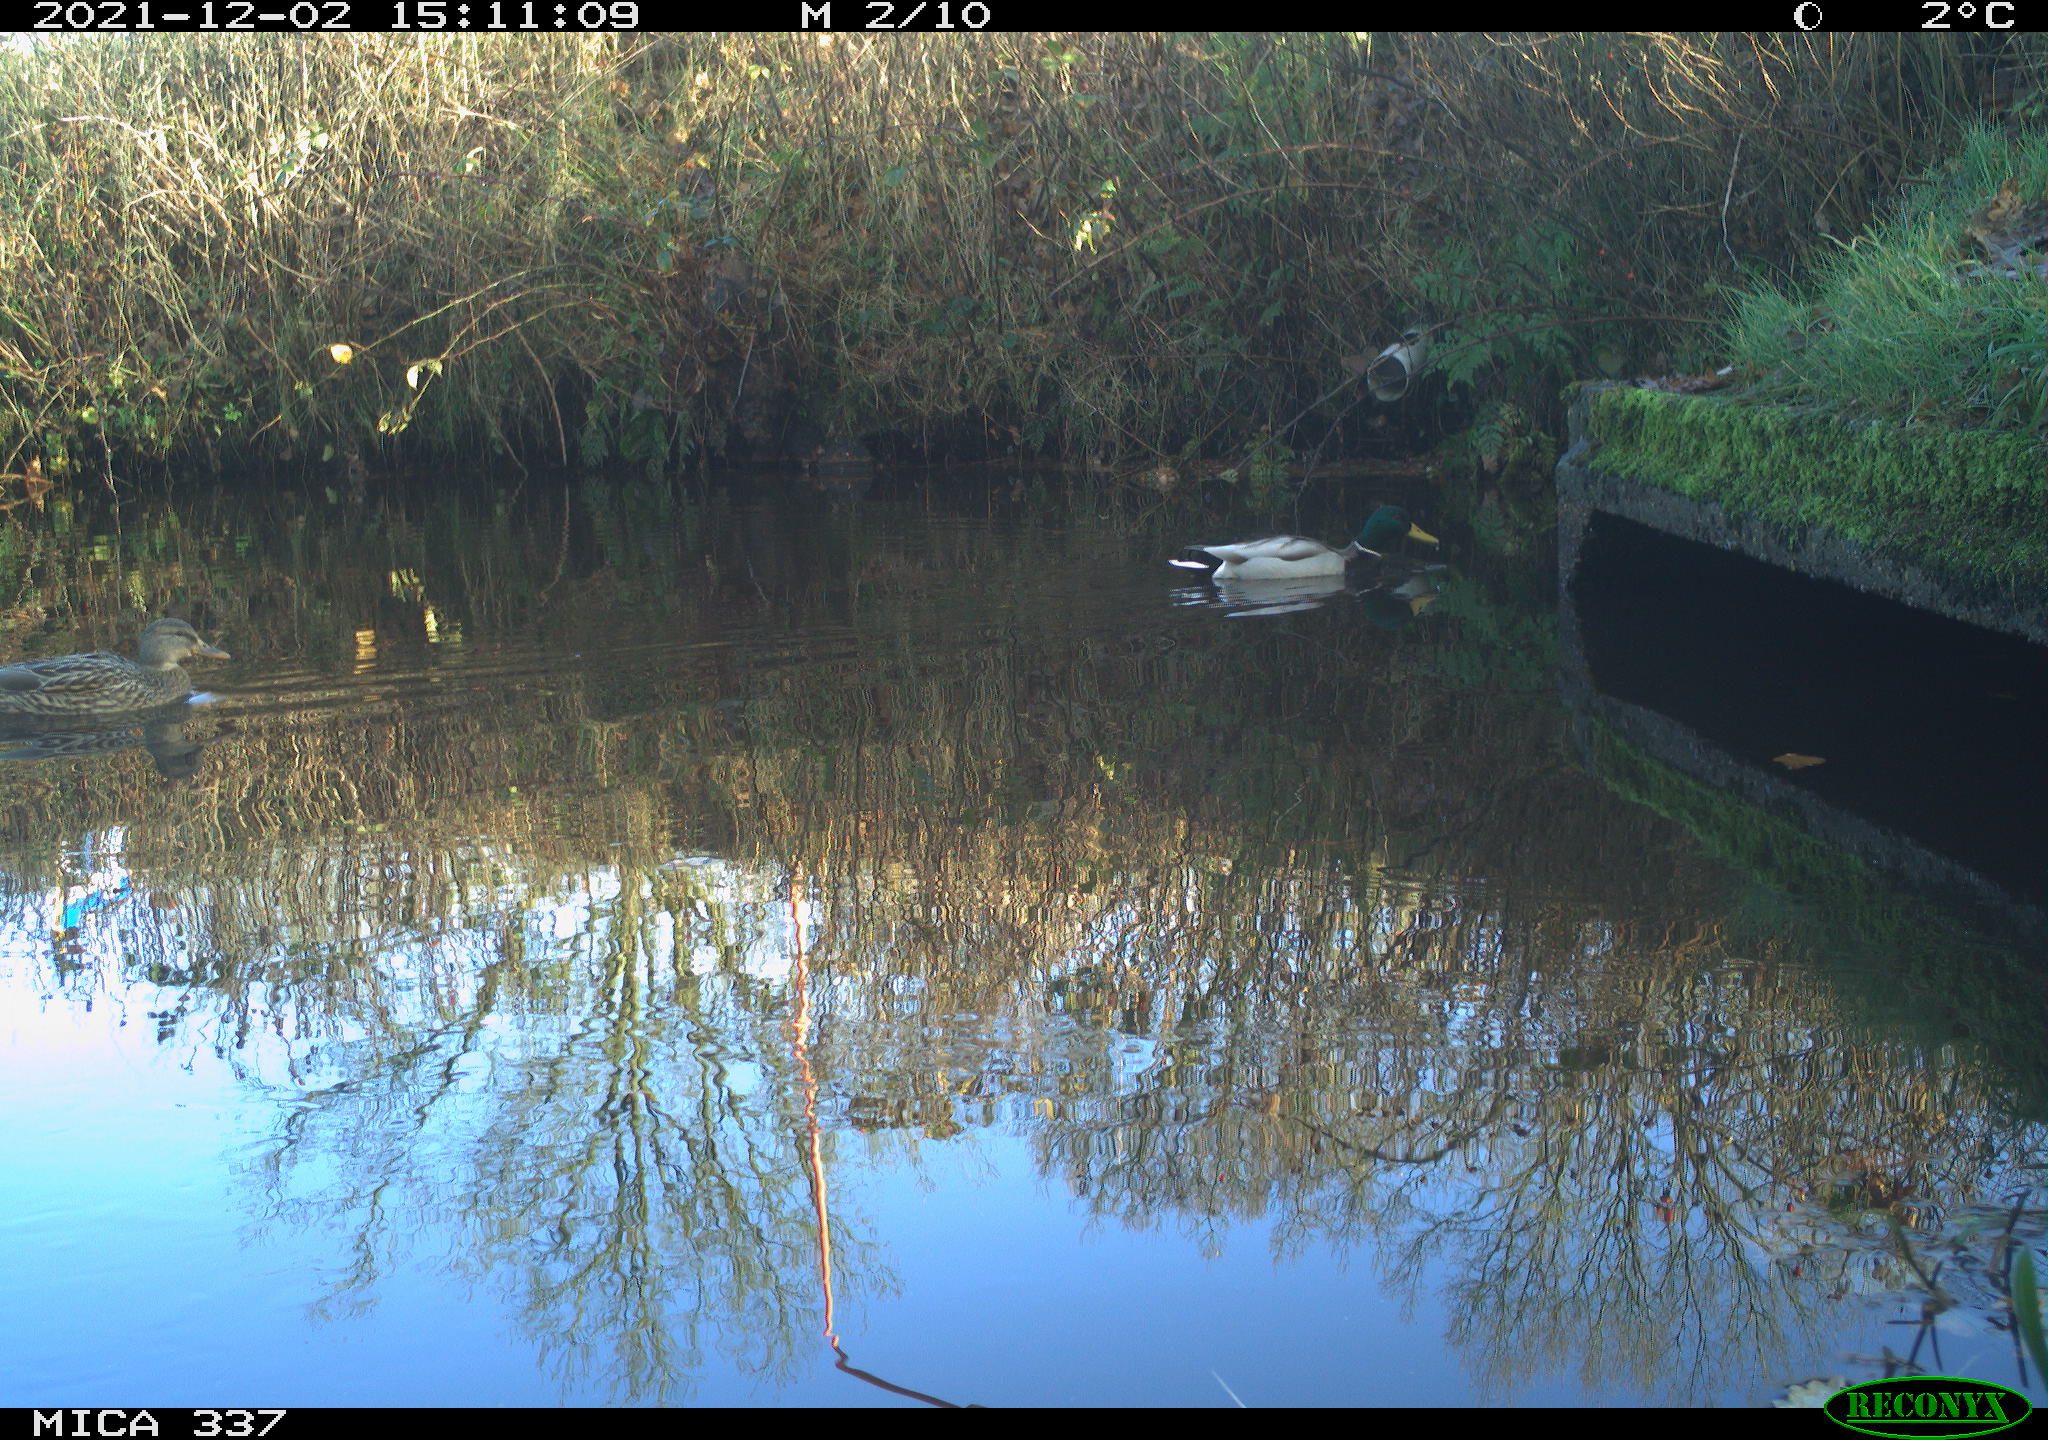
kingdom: Animalia
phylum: Chordata
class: Aves
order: Anseriformes
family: Anatidae
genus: Anas
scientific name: Anas platyrhynchos
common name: Mallard
